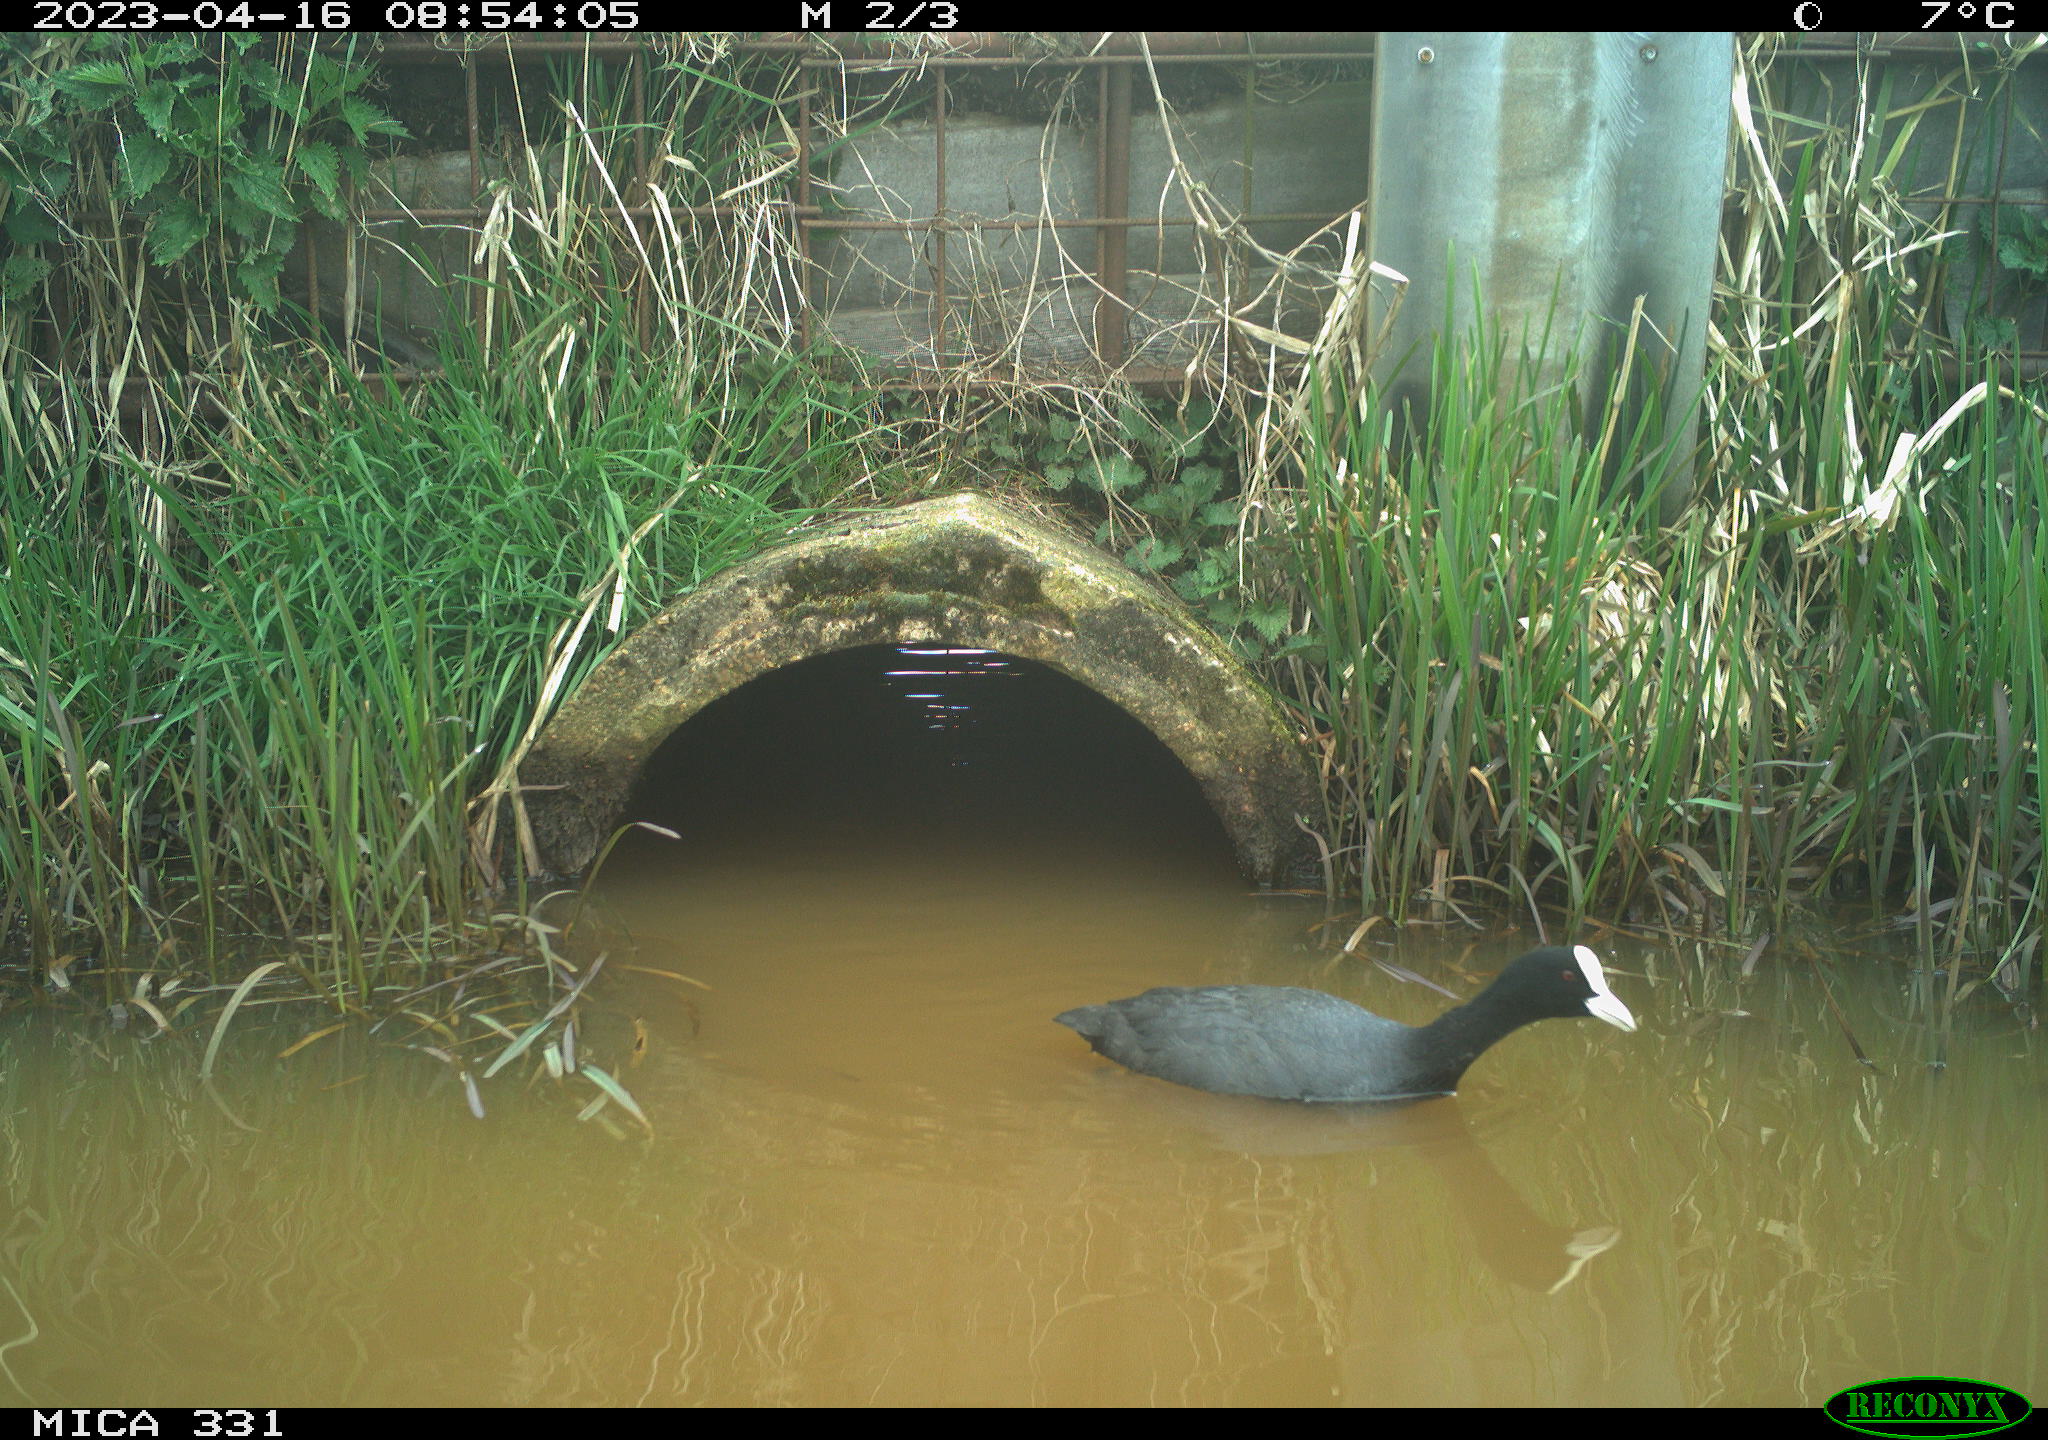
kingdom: Animalia
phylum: Chordata
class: Aves
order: Gruiformes
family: Rallidae
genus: Fulica
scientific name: Fulica atra
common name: Eurasian coot
